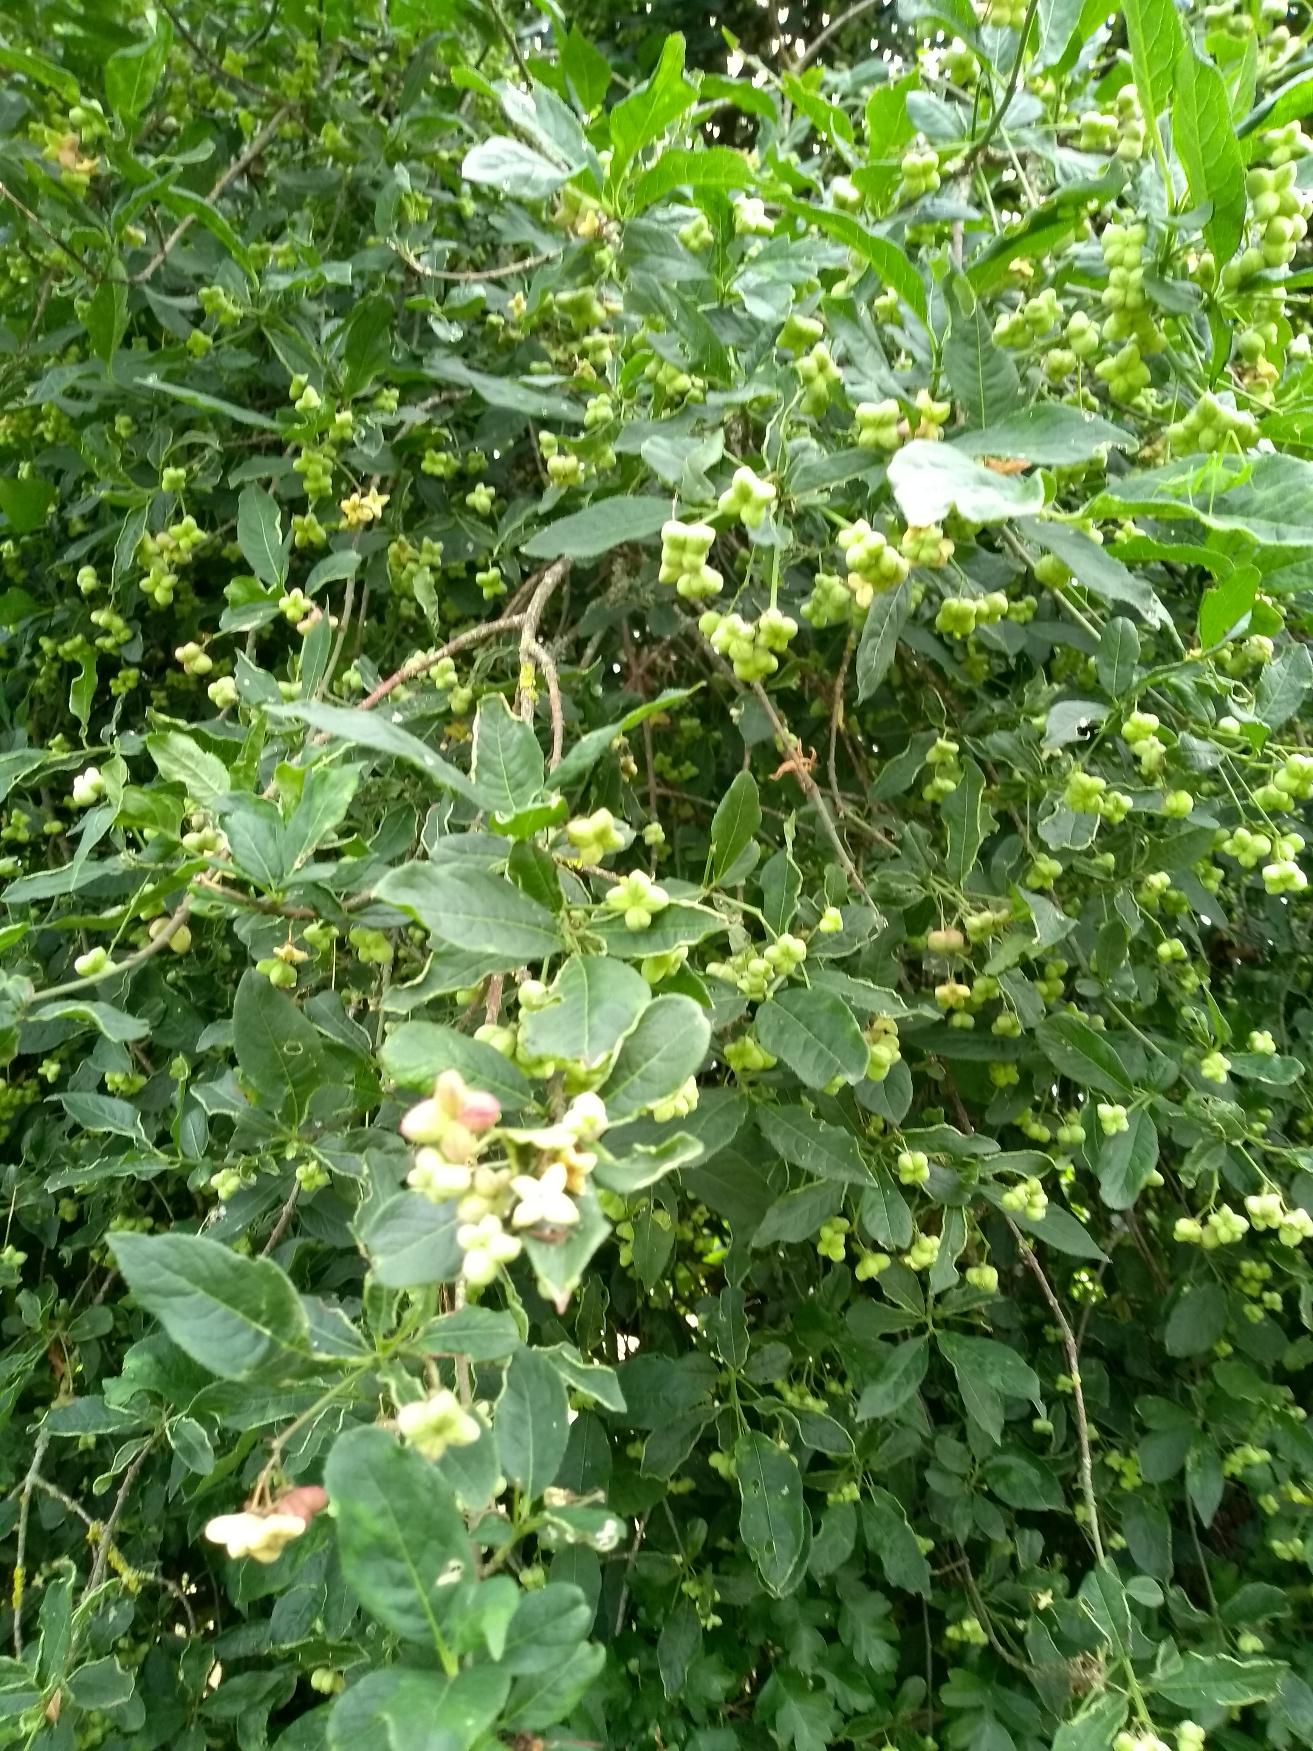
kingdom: Plantae
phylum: Tracheophyta
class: Magnoliopsida
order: Celastrales
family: Celastraceae
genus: Euonymus
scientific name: Euonymus europaeus
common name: Benved
